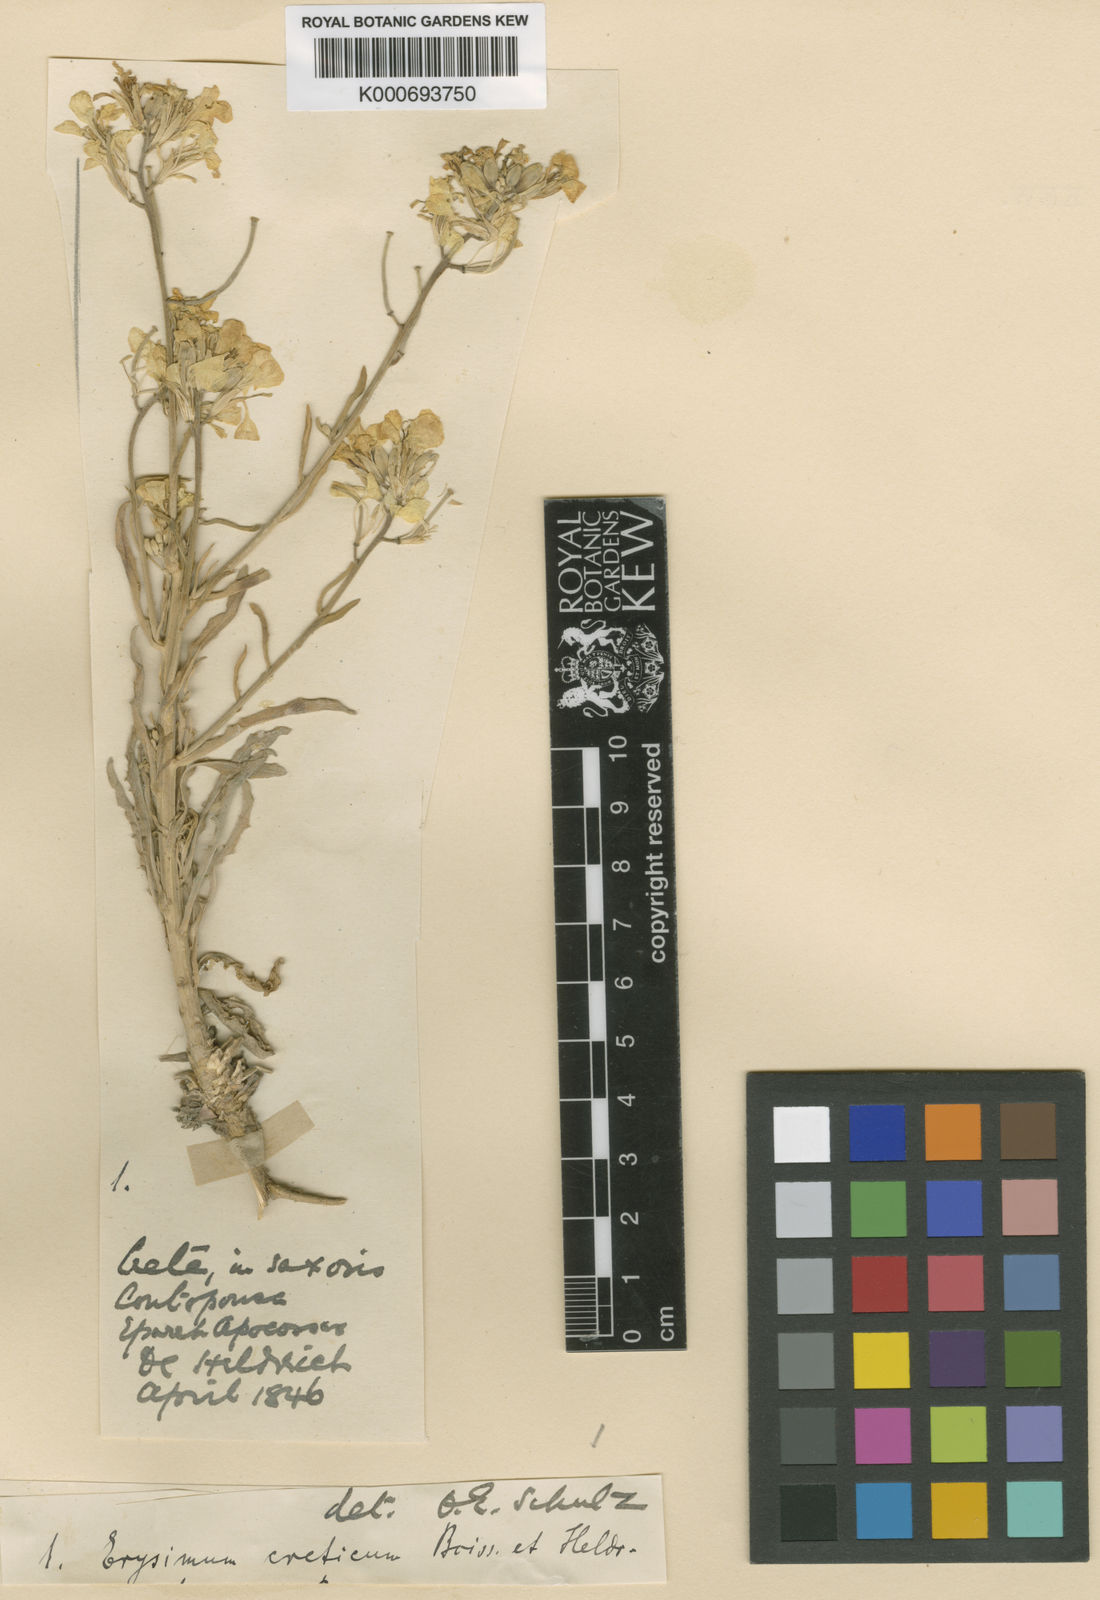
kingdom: Plantae
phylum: Tracheophyta
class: Magnoliopsida
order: Brassicales
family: Brassicaceae
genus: Erysimum
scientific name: Erysimum creticum
